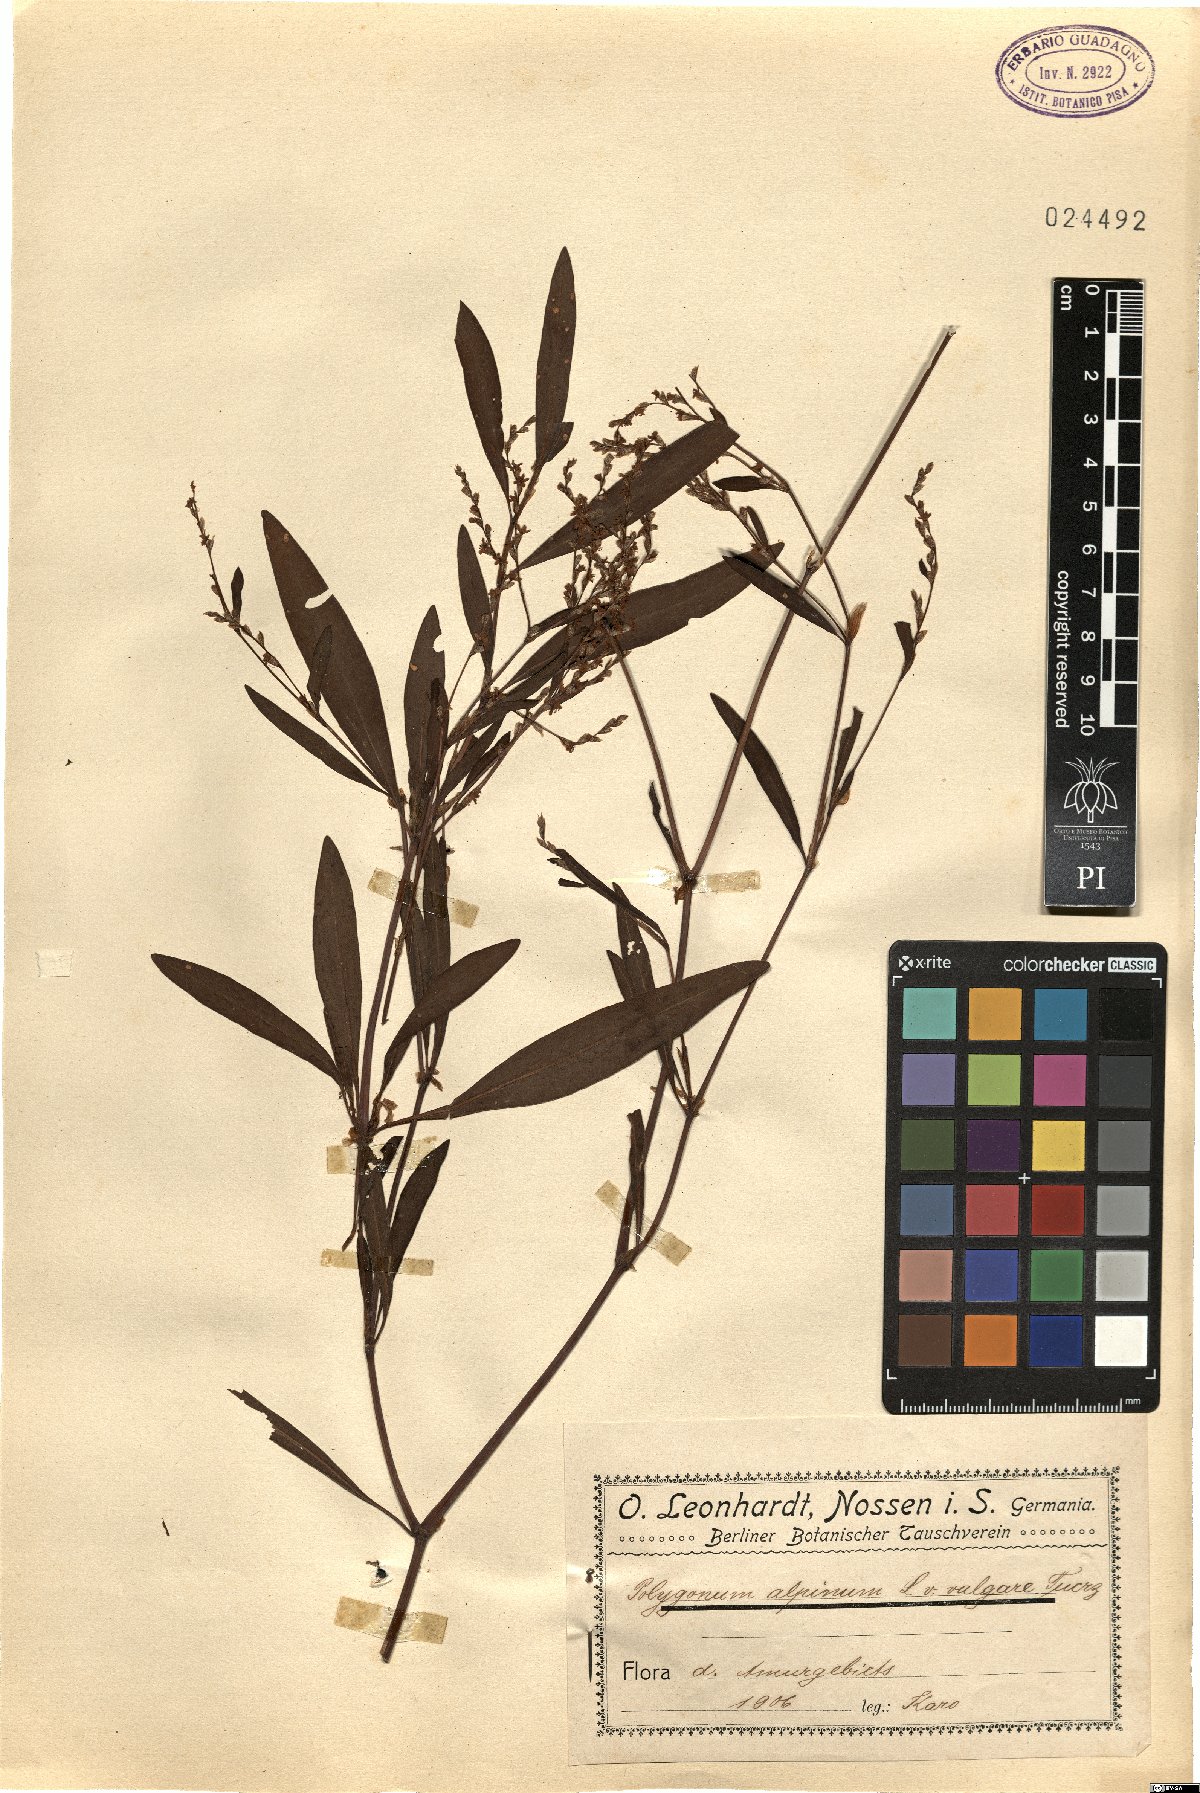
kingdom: Plantae
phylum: Tracheophyta
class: Magnoliopsida
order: Caryophyllales
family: Polygonaceae
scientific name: Polygonaceae
